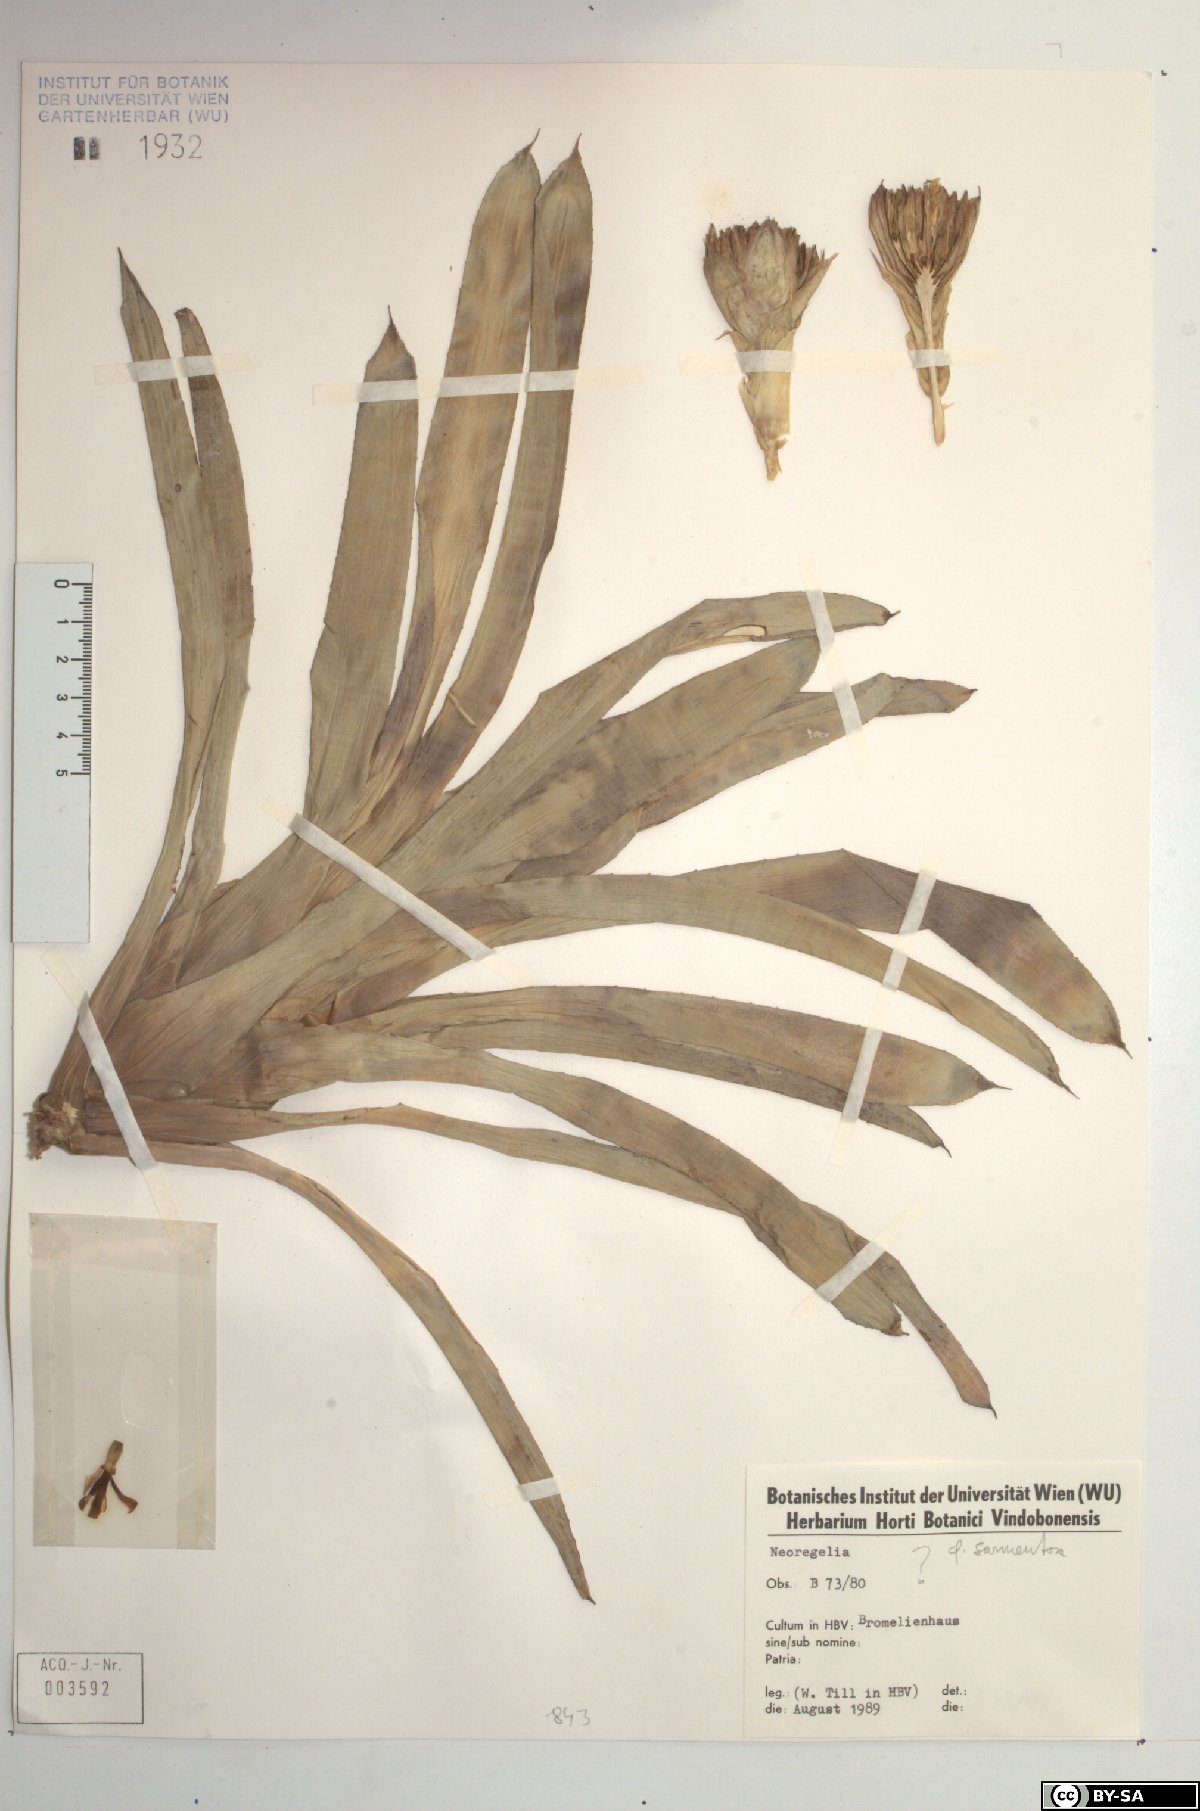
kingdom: Plantae
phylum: Tracheophyta
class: Liliopsida
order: Poales
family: Bromeliaceae
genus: Neoregelia
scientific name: Neoregelia sarmentosa
